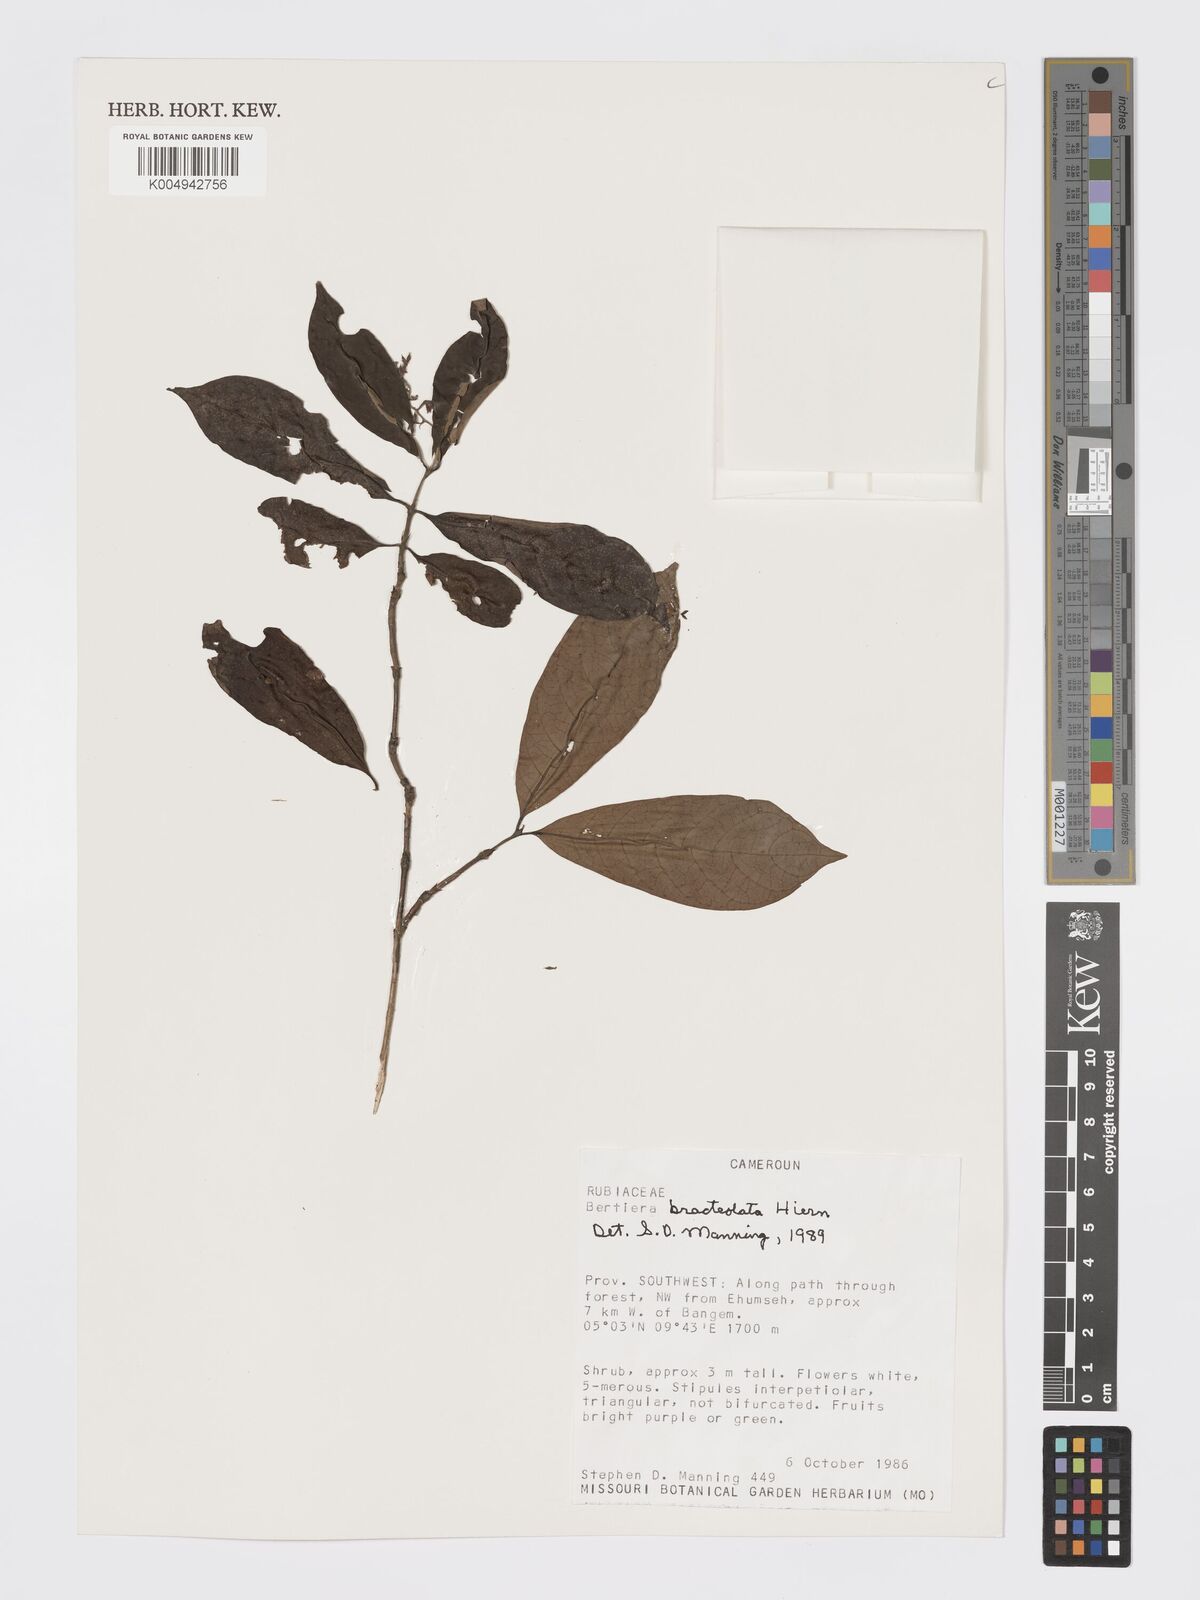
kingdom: Plantae
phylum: Tracheophyta
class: Magnoliopsida
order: Gentianales
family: Rubiaceae
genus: Bertiera
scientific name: Bertiera bracteolata
